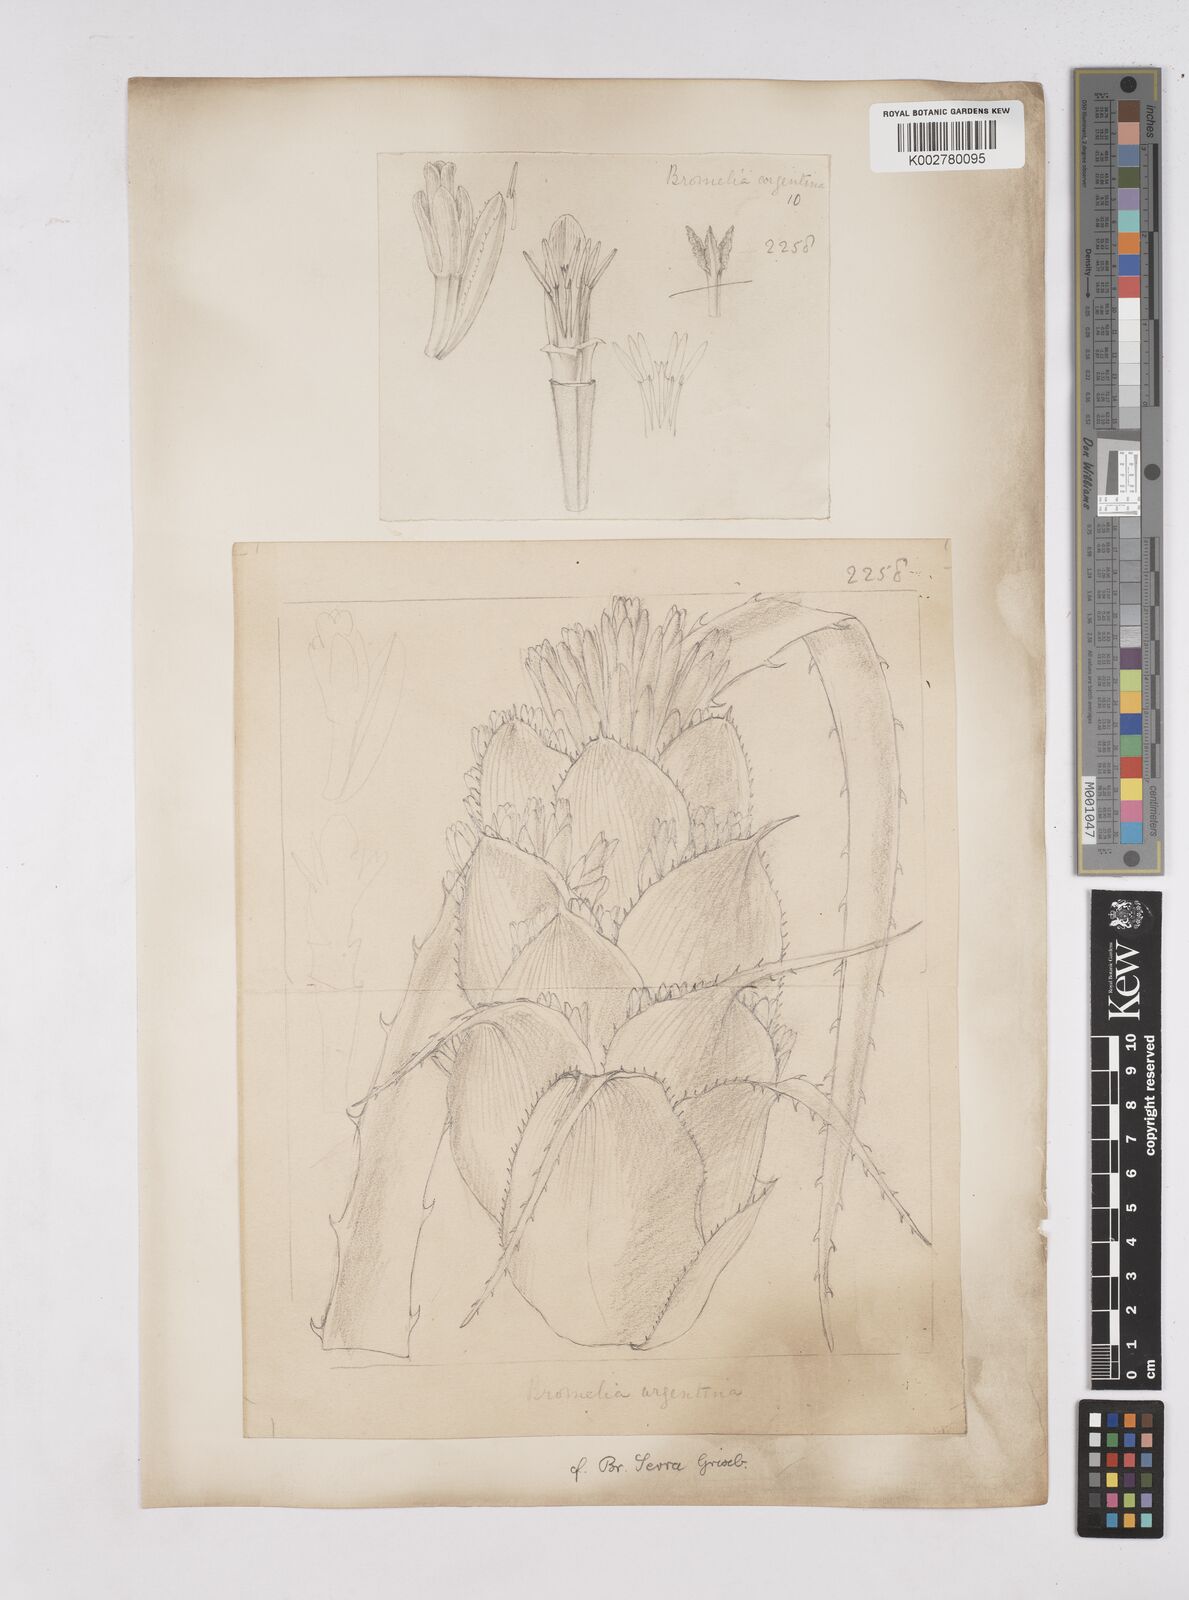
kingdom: Plantae
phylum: Tracheophyta
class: Liliopsida
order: Poales
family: Bromeliaceae
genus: Bromelia
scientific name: Bromelia balansae
